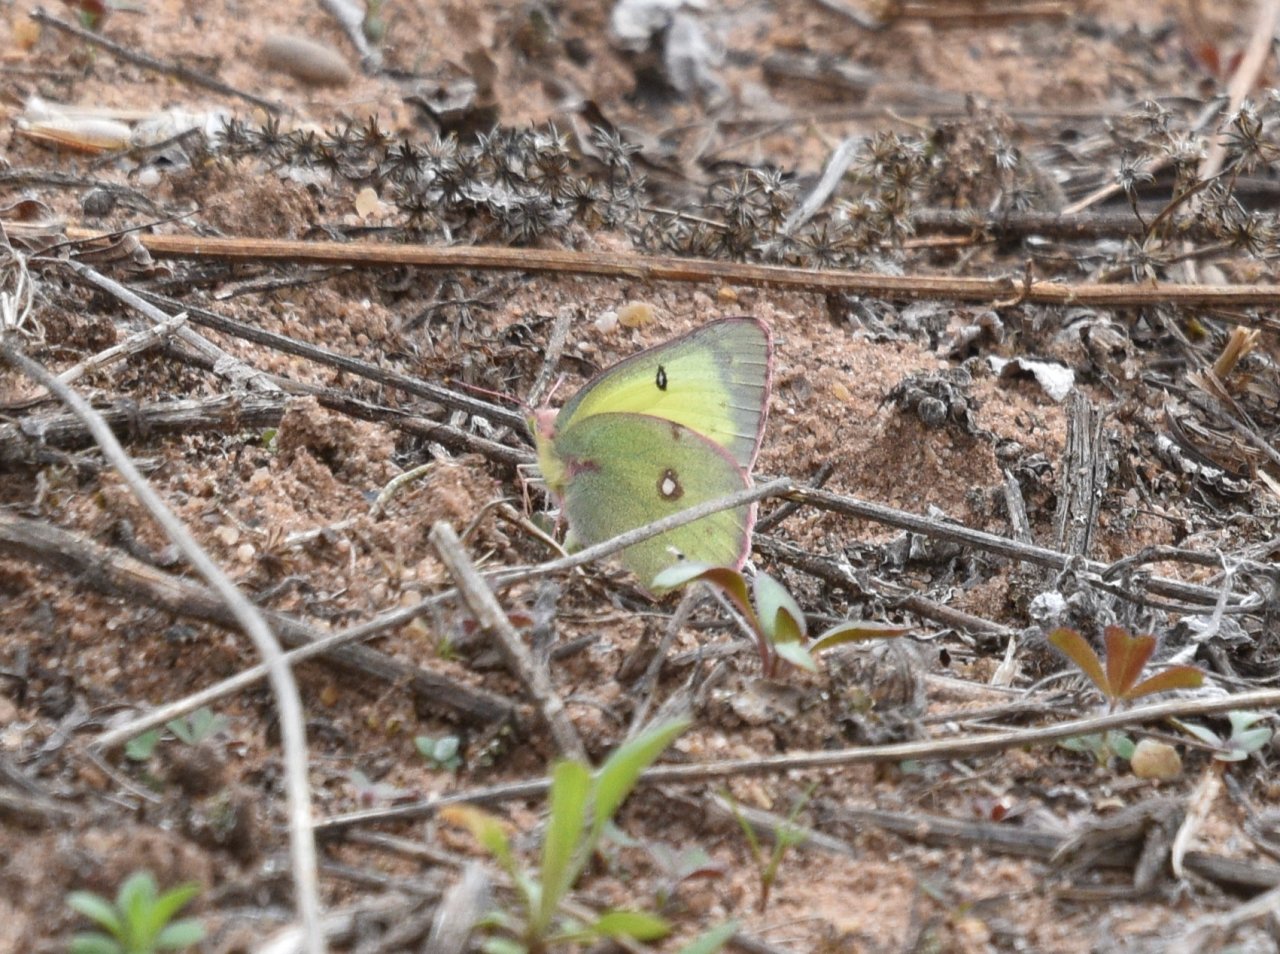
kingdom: Animalia
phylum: Arthropoda
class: Insecta
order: Lepidoptera
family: Pieridae
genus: Colias
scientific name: Colias philodice
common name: Clouded Sulphur
